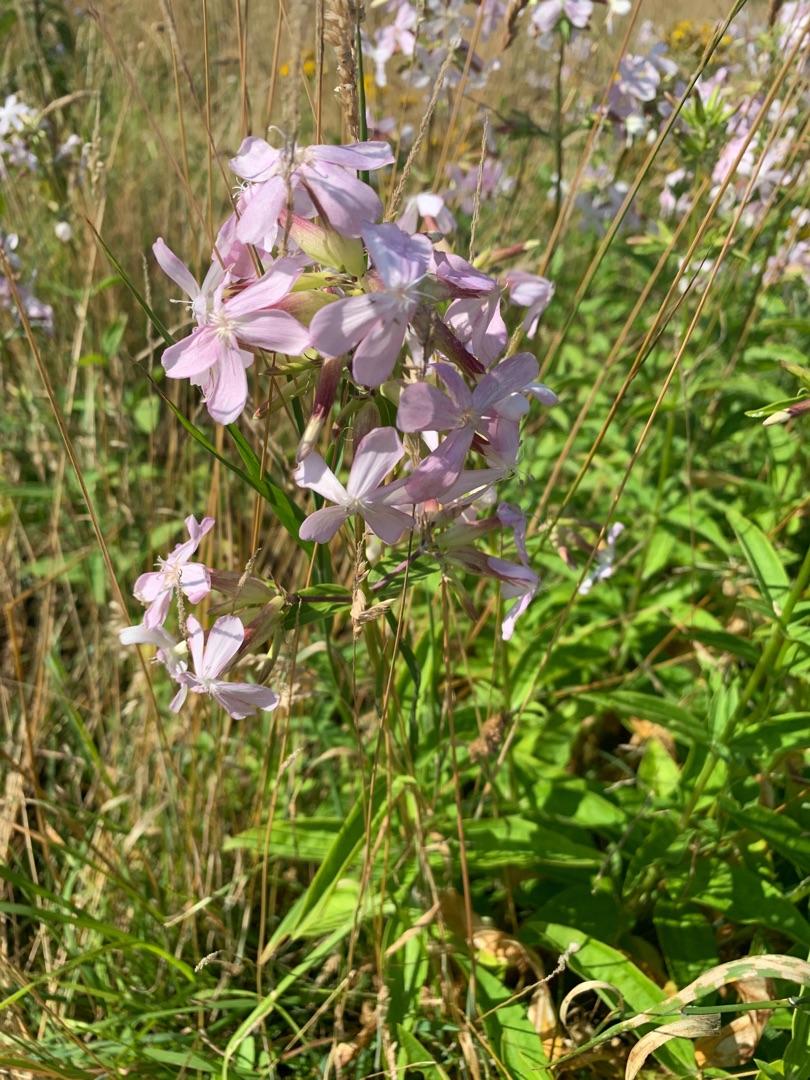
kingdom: Plantae
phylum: Tracheophyta
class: Magnoliopsida
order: Caryophyllales
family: Caryophyllaceae
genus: Saponaria
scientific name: Saponaria officinalis
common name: Sæbeurt
